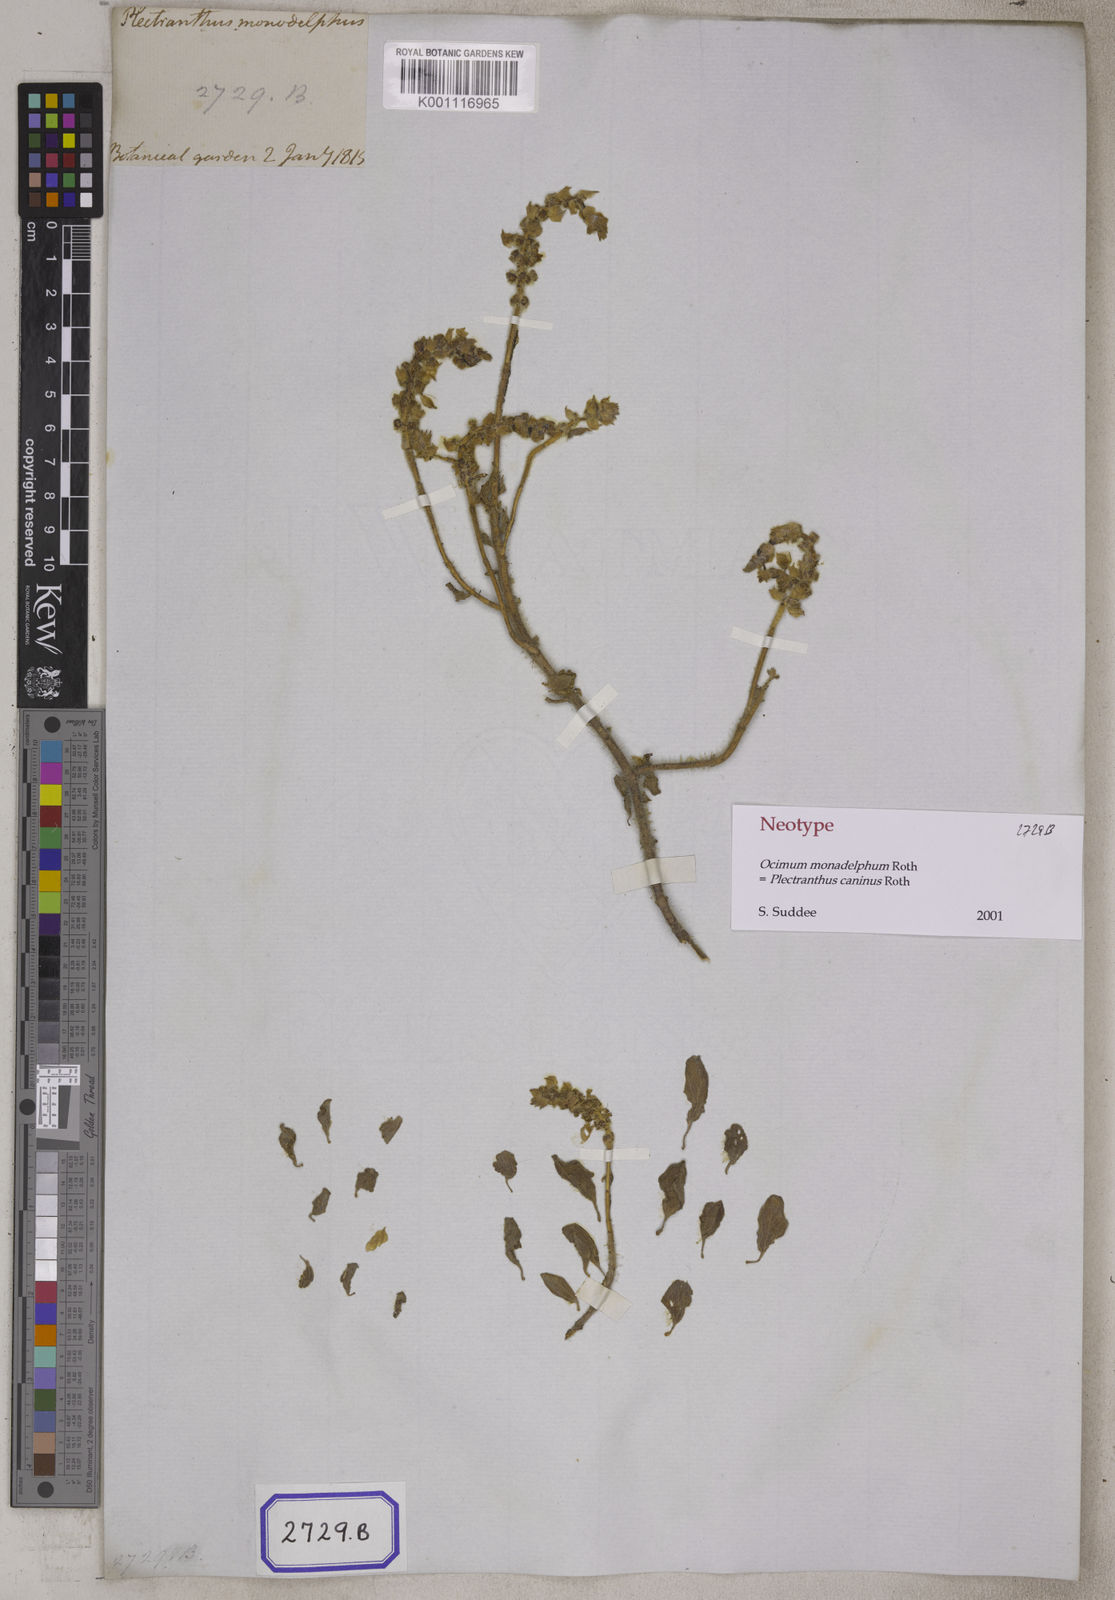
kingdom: Plantae
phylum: Tracheophyta
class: Magnoliopsida
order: Lamiales
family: Lamiaceae
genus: Coleus
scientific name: Coleus caninus
